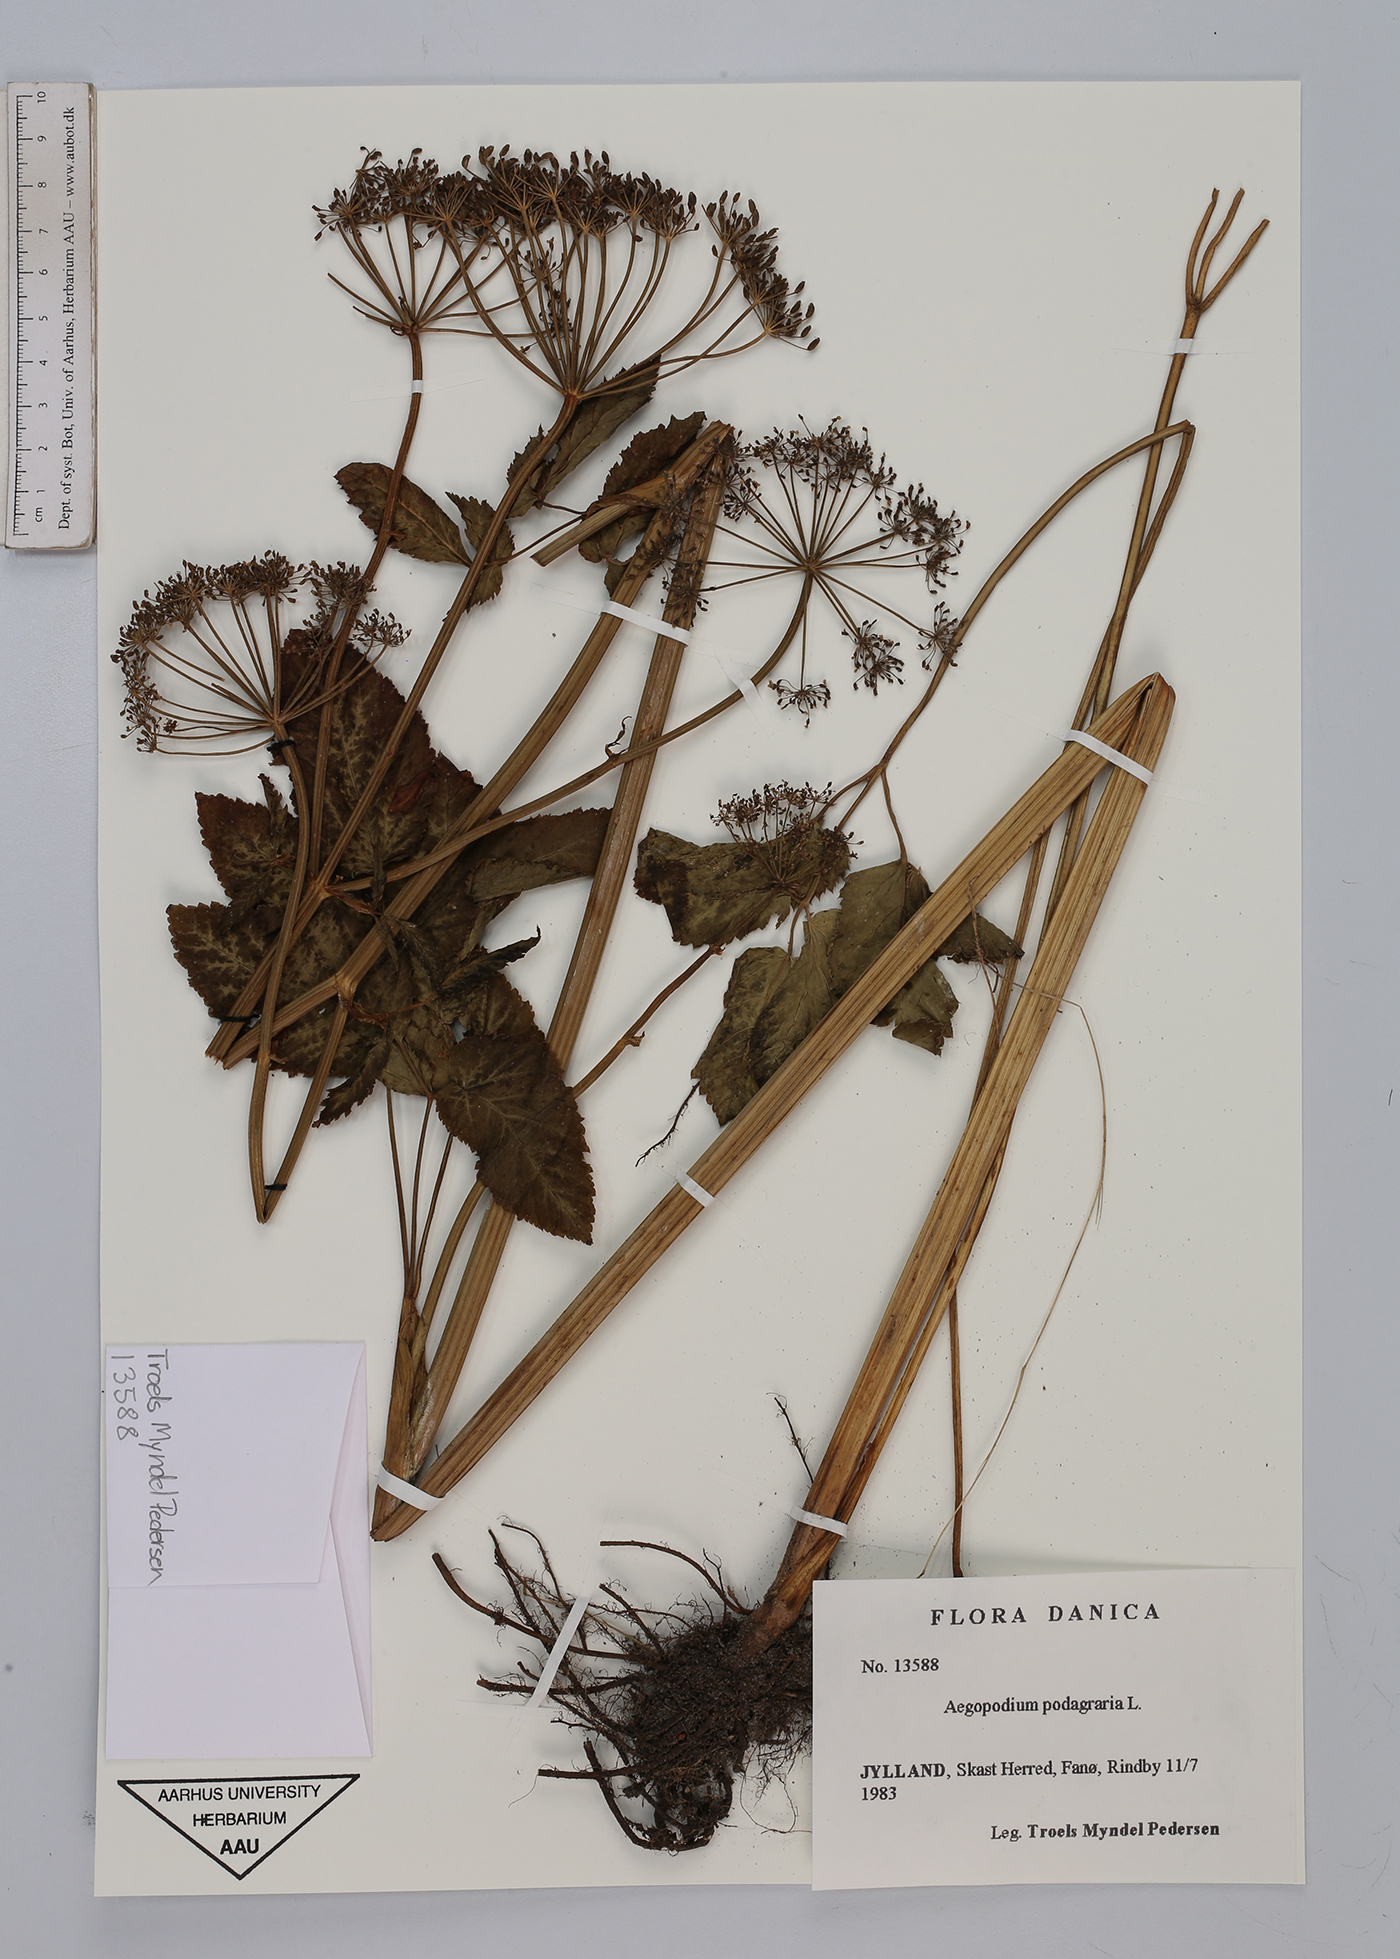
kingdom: Plantae
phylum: Tracheophyta
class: Magnoliopsida
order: Apiales
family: Apiaceae
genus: Aegopodium
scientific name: Aegopodium podagraria
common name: Ground-elder
